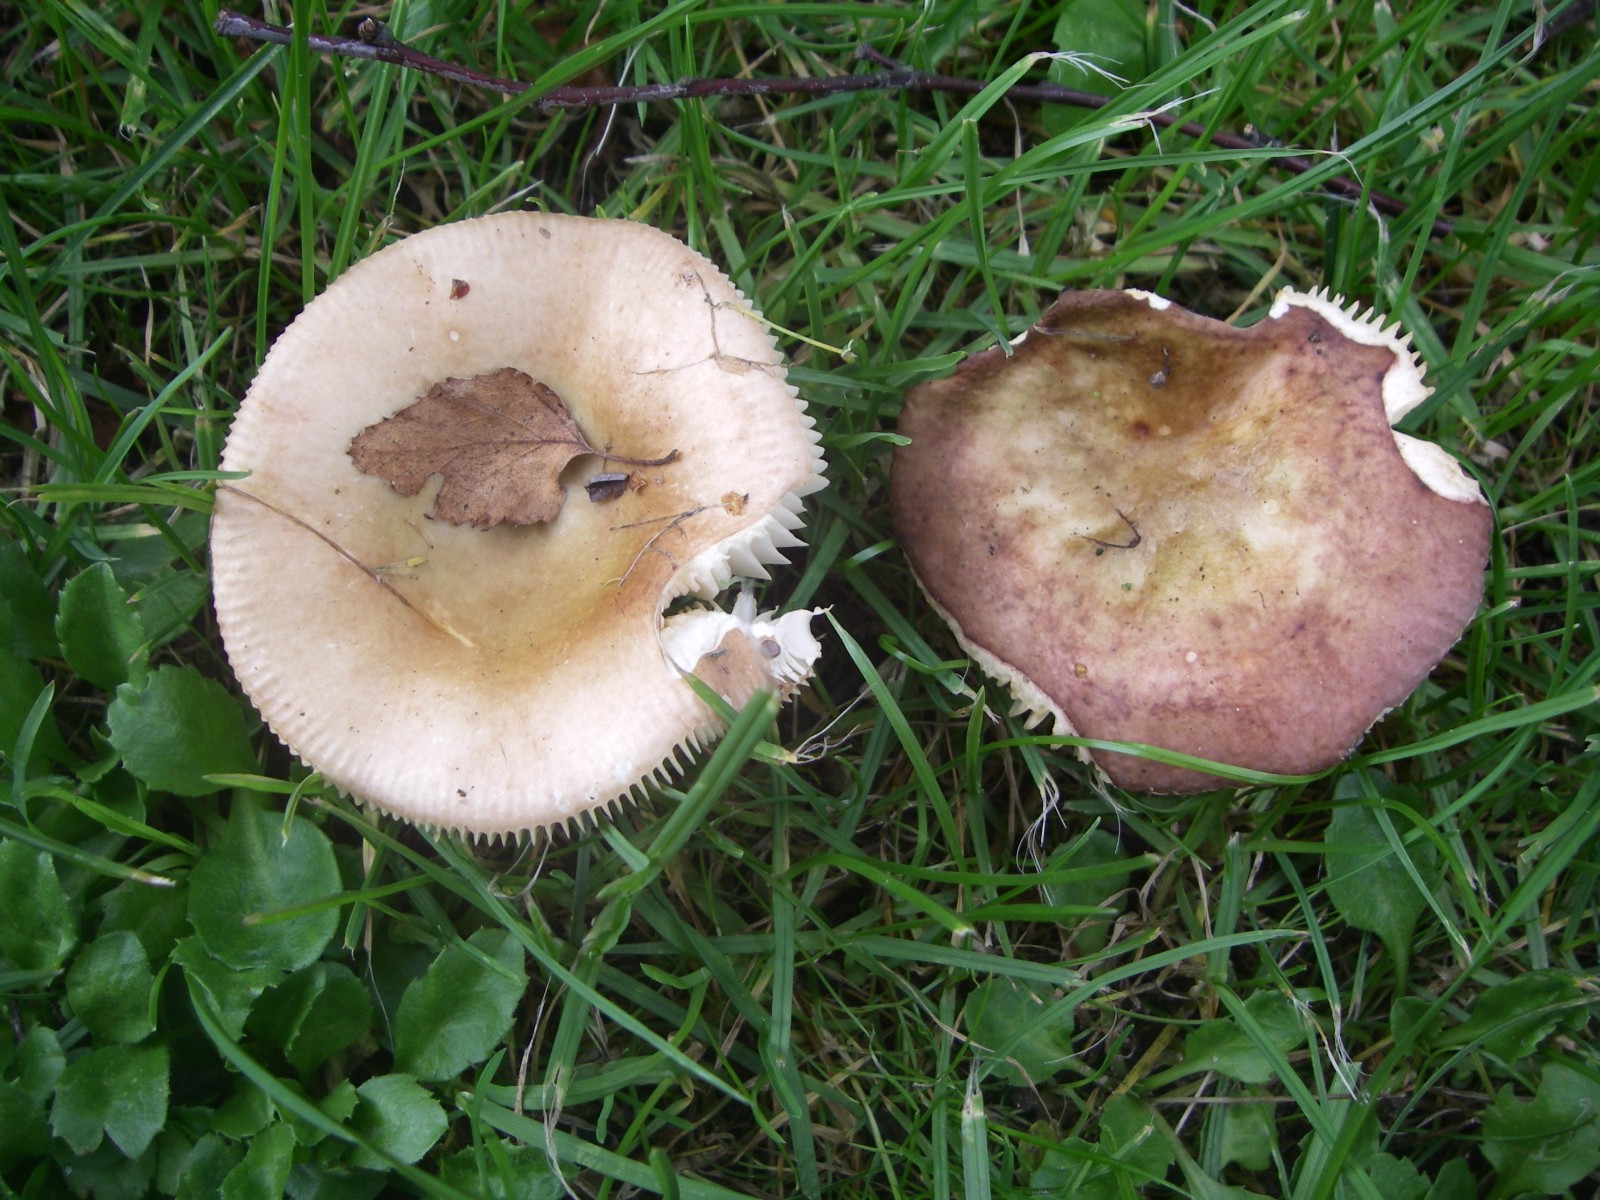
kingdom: Fungi
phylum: Basidiomycota
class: Agaricomycetes
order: Russulales
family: Russulaceae
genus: Russula
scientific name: Russula
